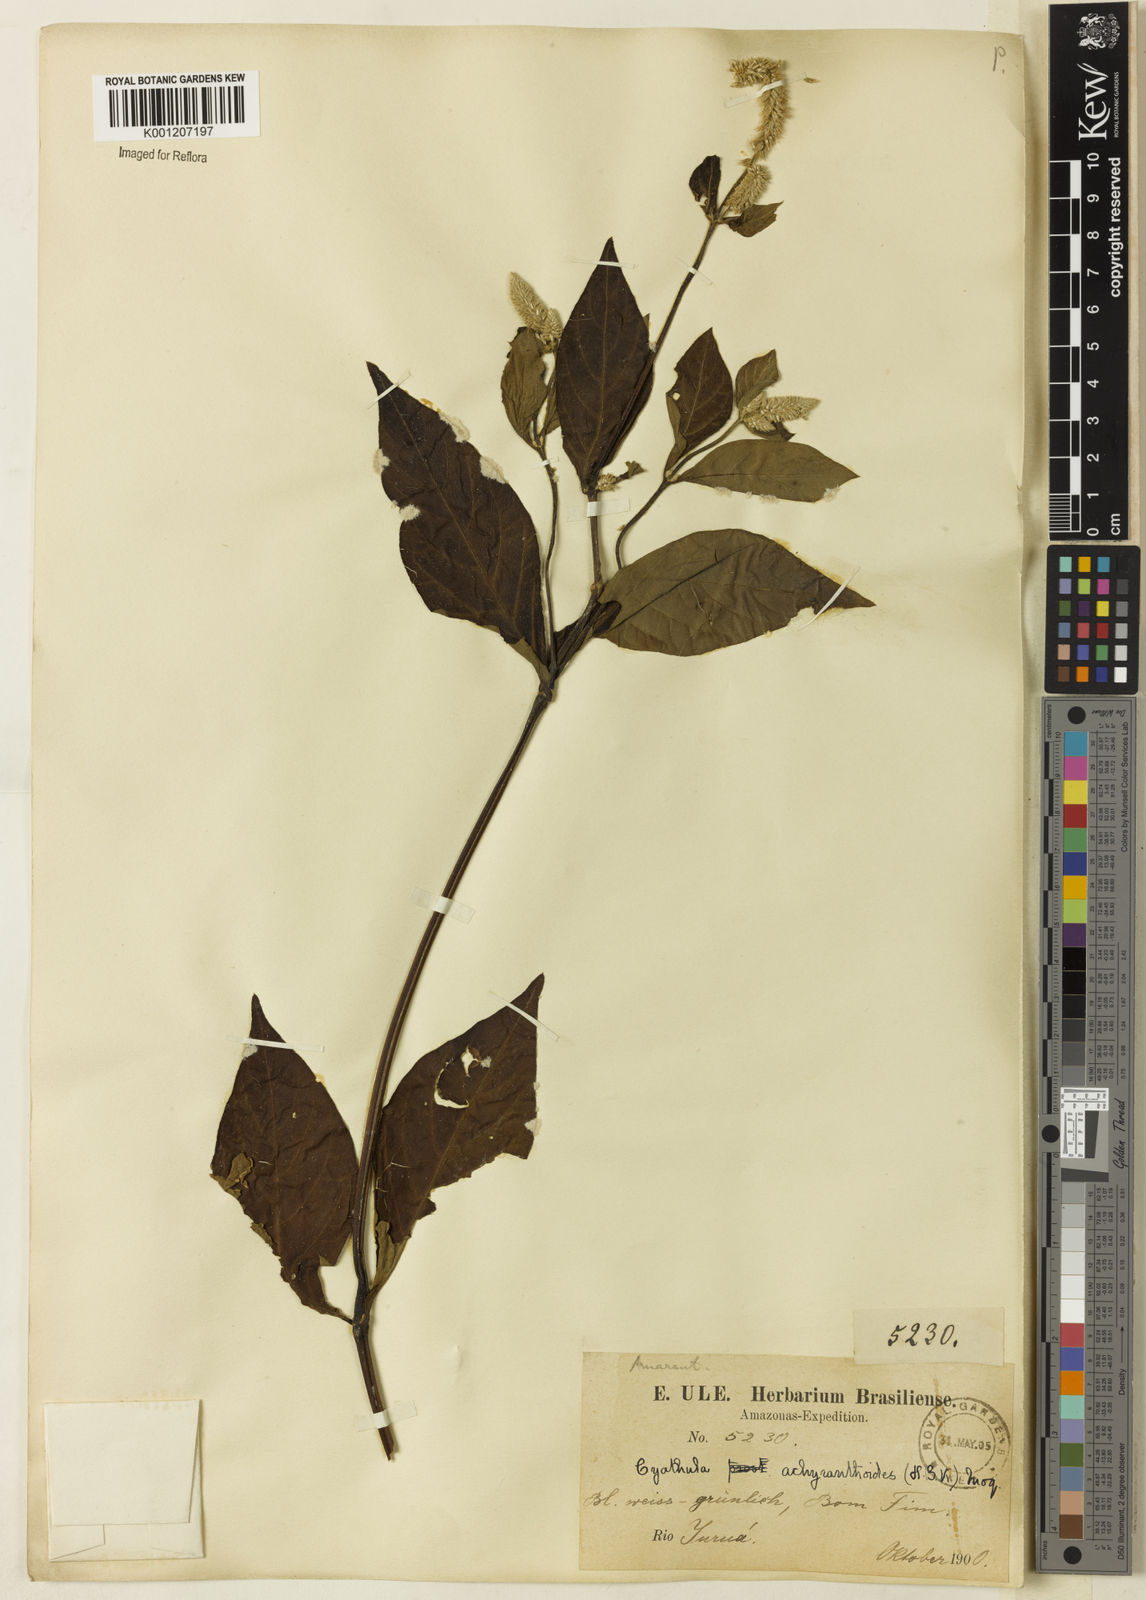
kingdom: Plantae
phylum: Tracheophyta
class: Magnoliopsida
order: Caryophyllales
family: Amaranthaceae
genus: Cyathula
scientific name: Cyathula achyranthoides
